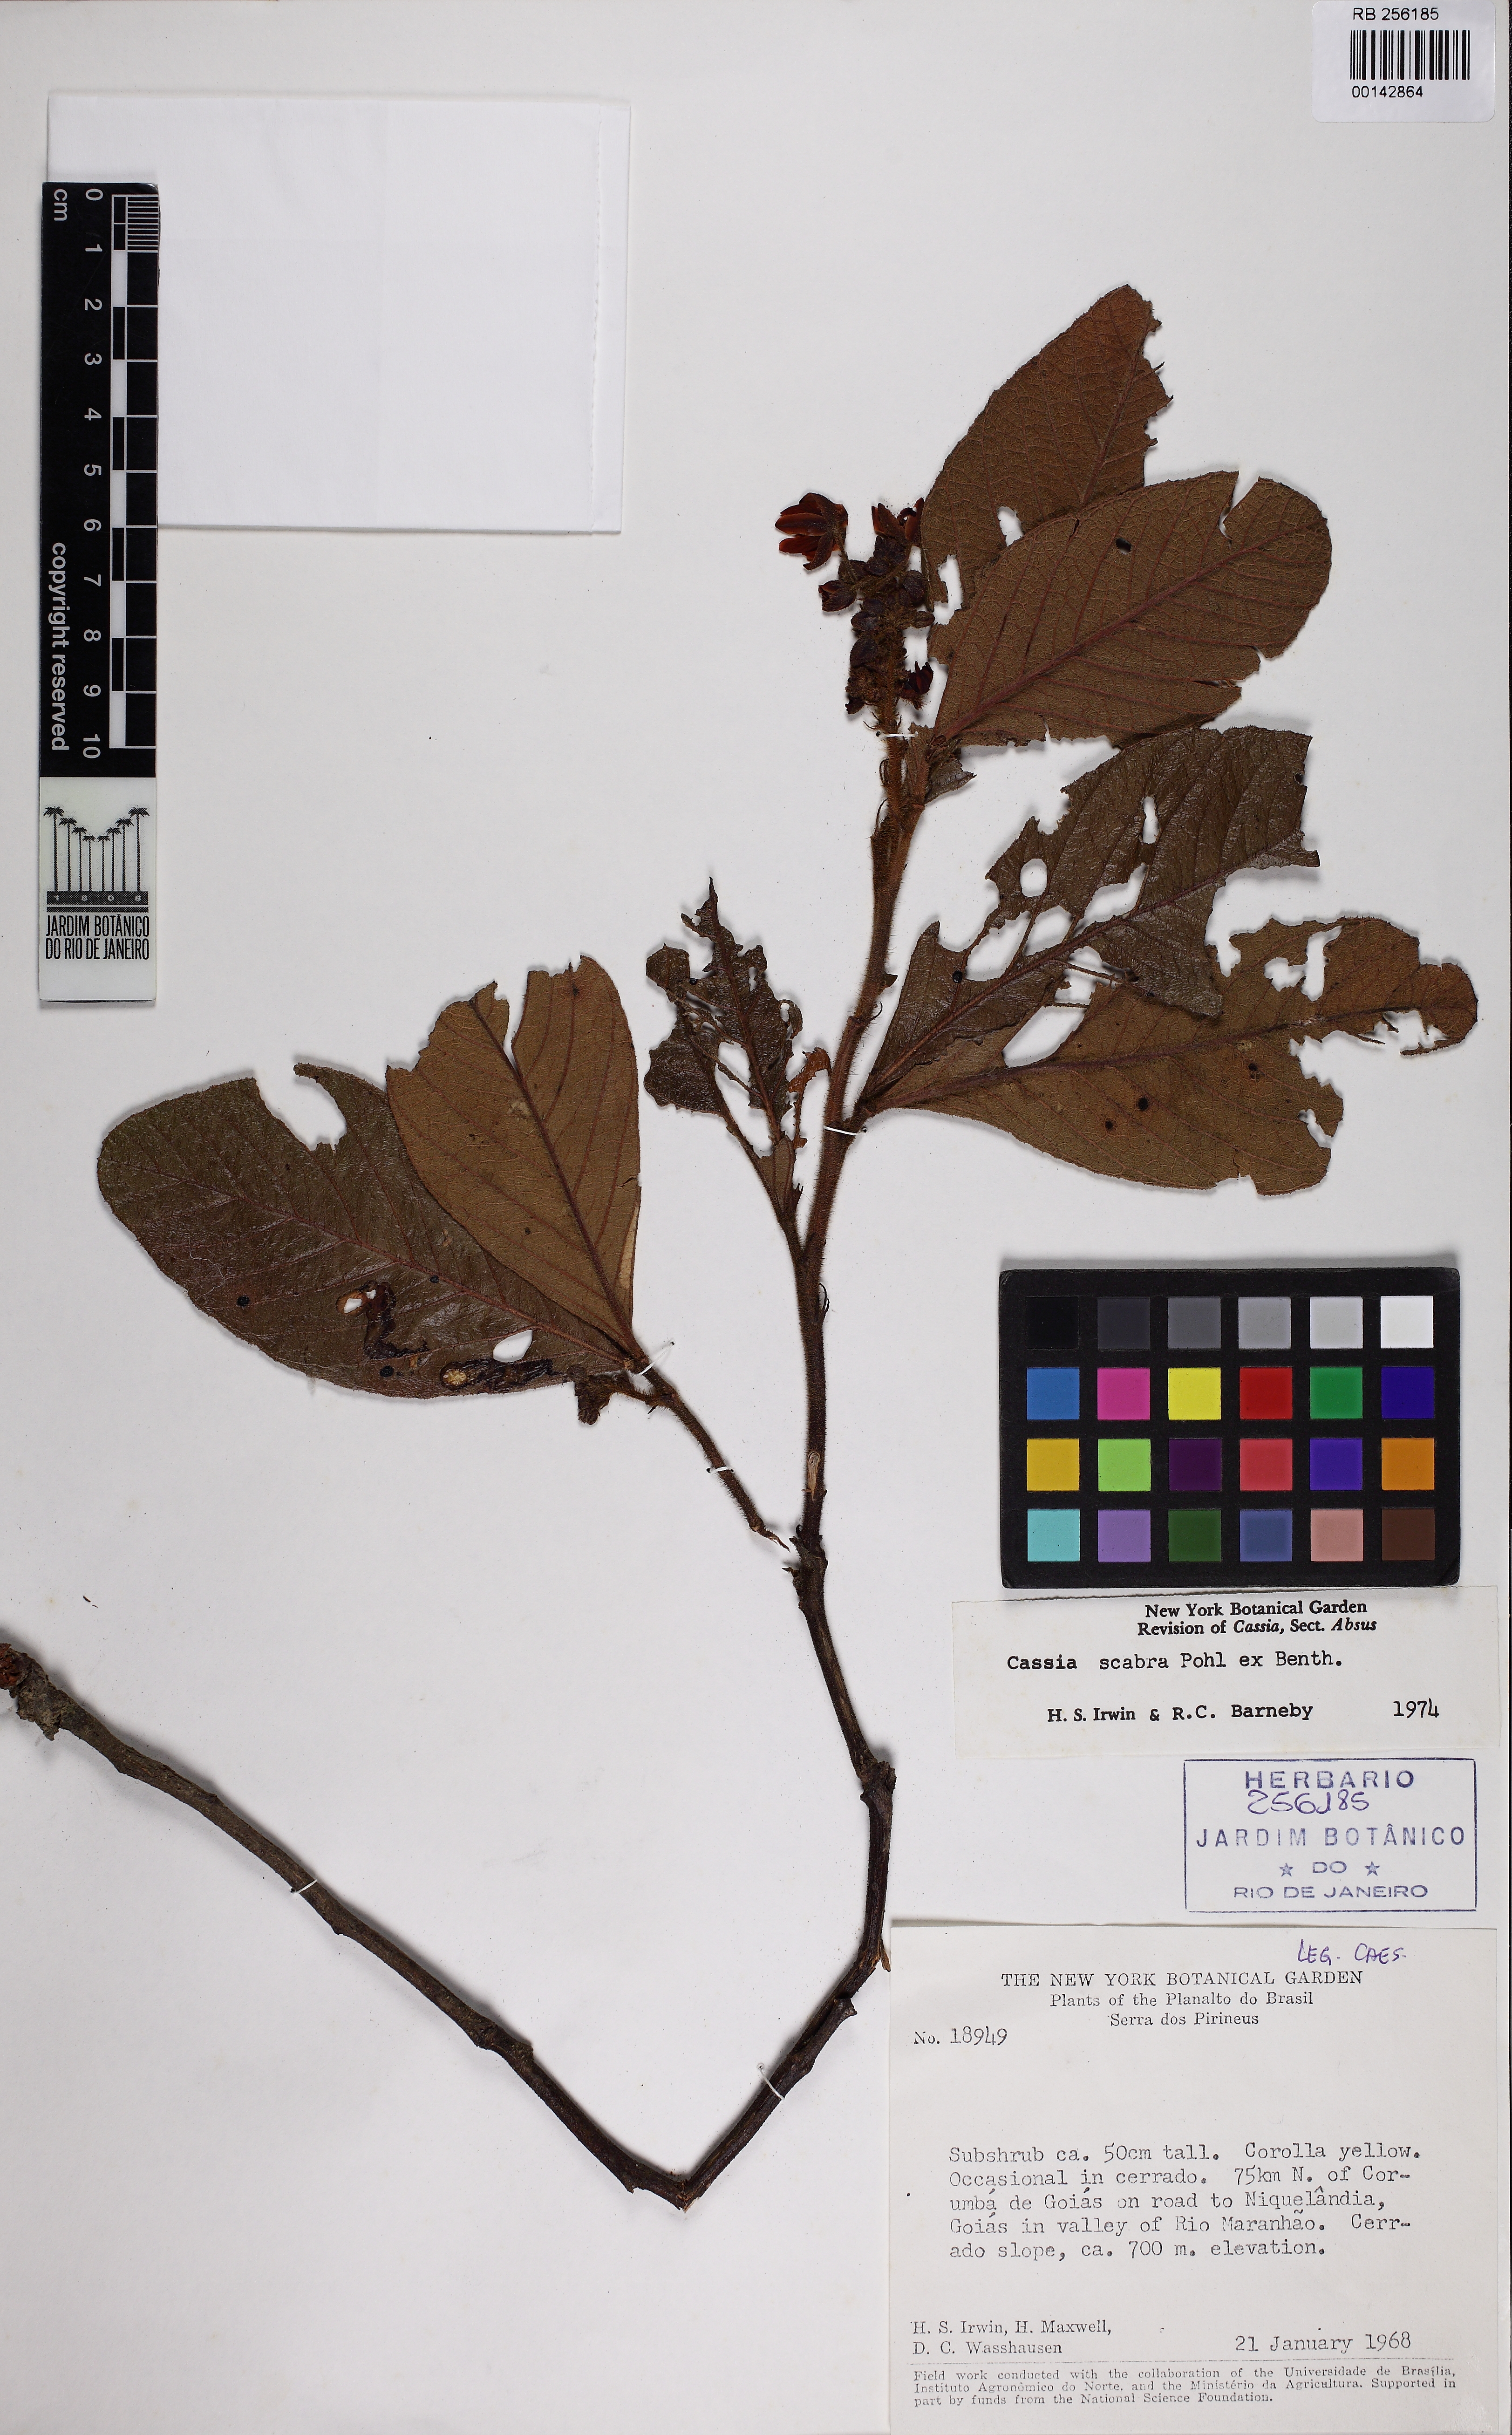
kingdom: Plantae
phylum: Tracheophyta
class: Magnoliopsida
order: Fabales
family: Fabaceae
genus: Chamaecrista
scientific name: Chamaecrista scabra
